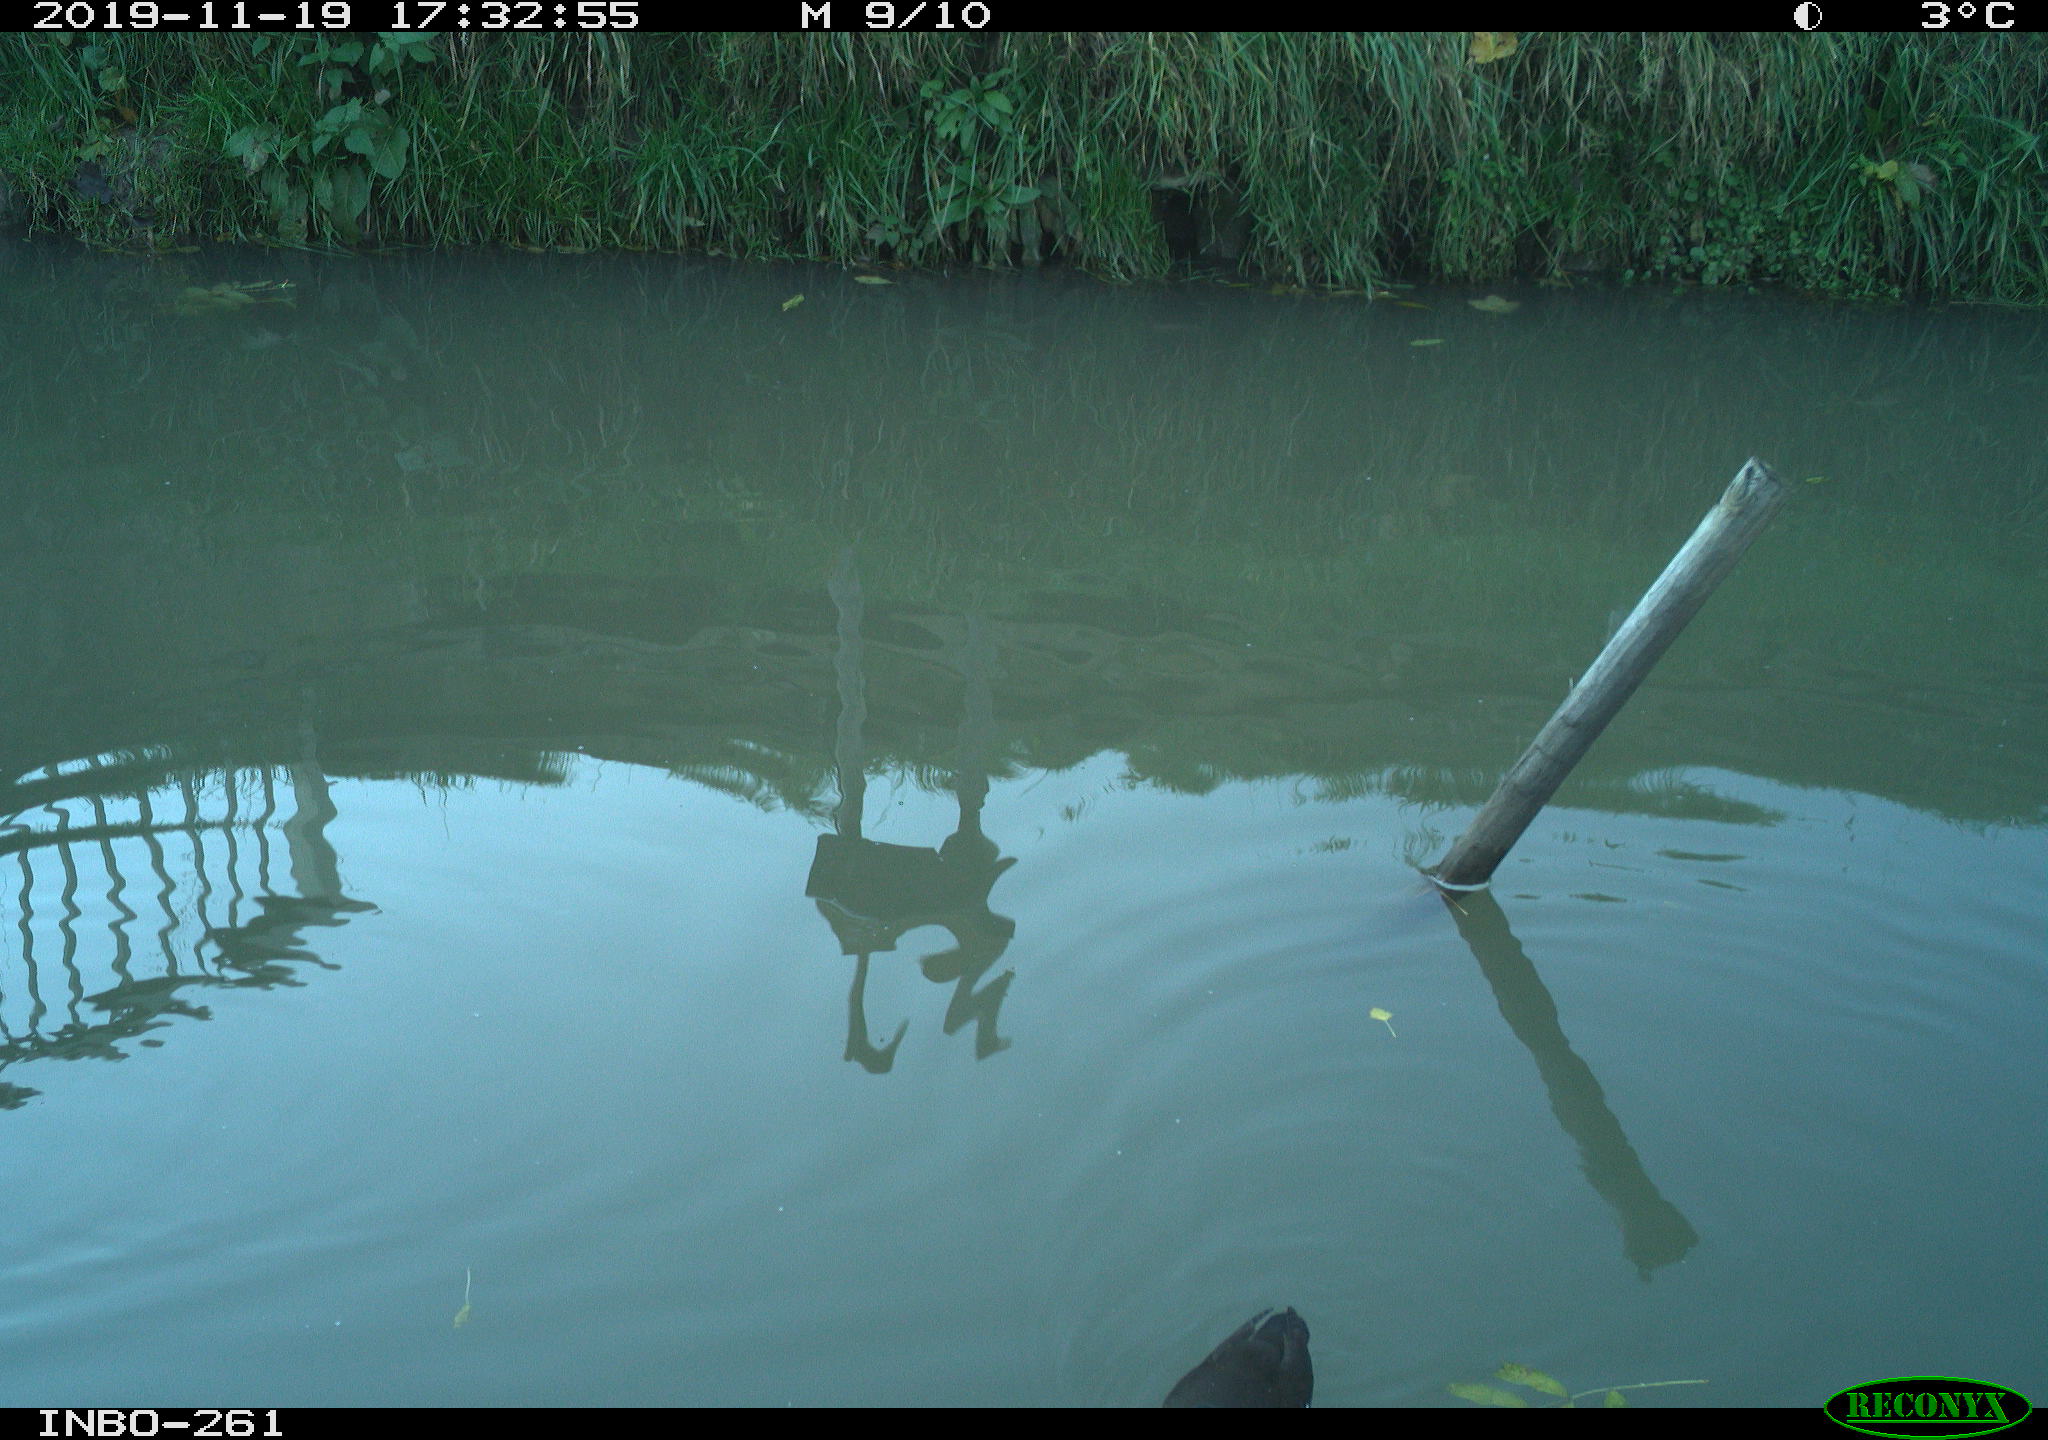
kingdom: Animalia
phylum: Chordata
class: Aves
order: Gruiformes
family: Rallidae
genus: Gallinula
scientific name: Gallinula chloropus
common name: Common moorhen
